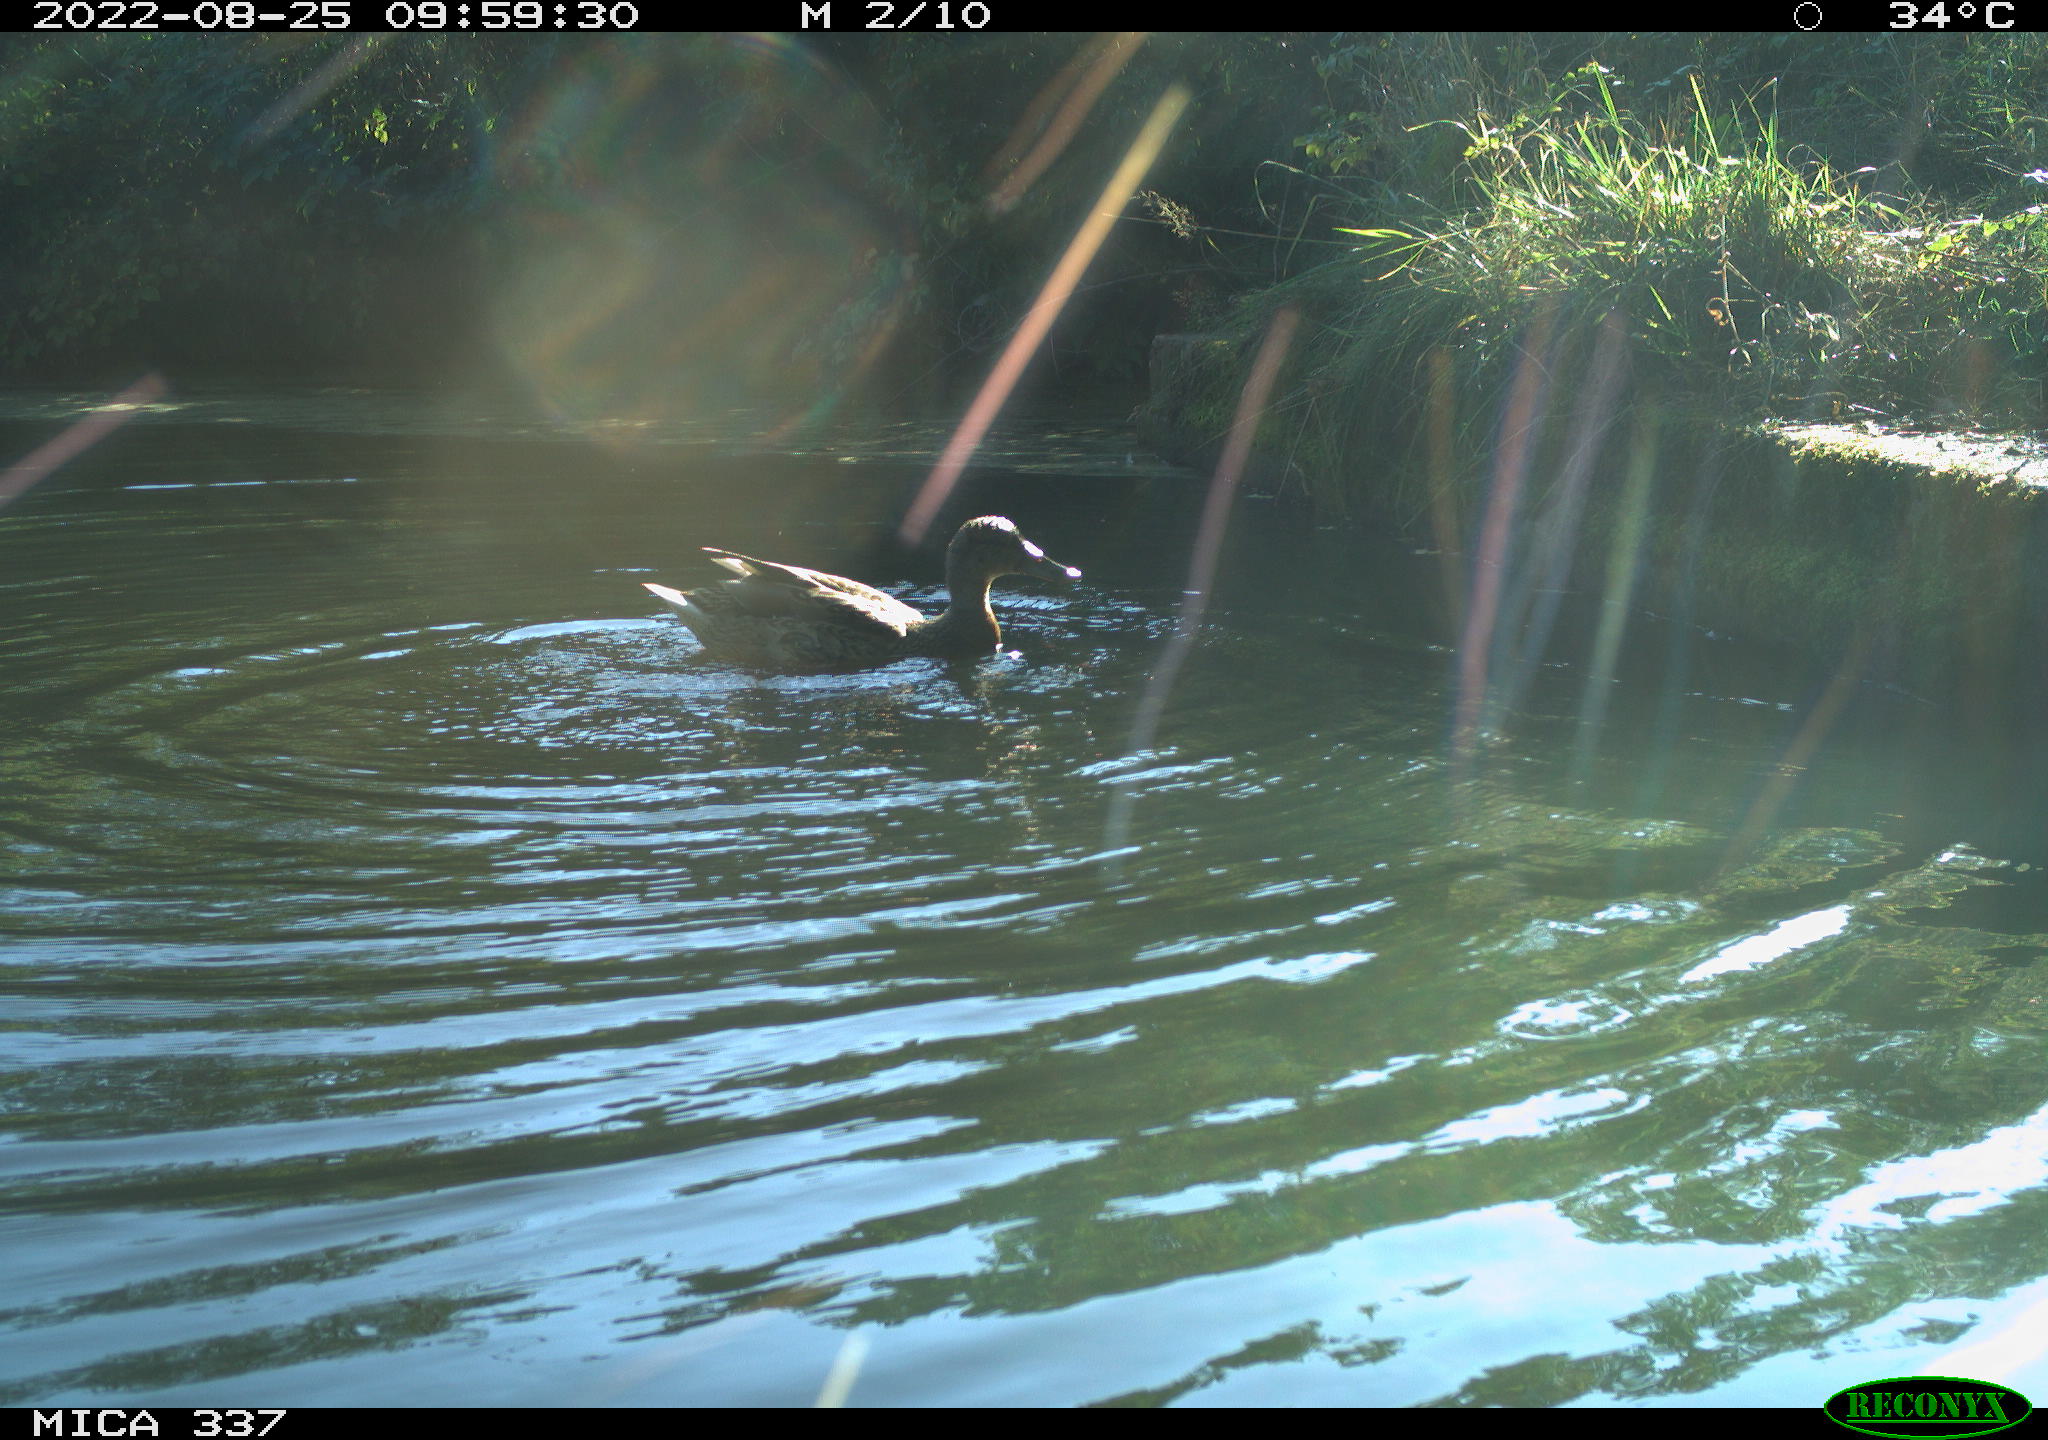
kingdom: Animalia
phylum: Chordata
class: Aves
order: Gruiformes
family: Rallidae
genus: Gallinula
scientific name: Gallinula chloropus
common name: Common moorhen
